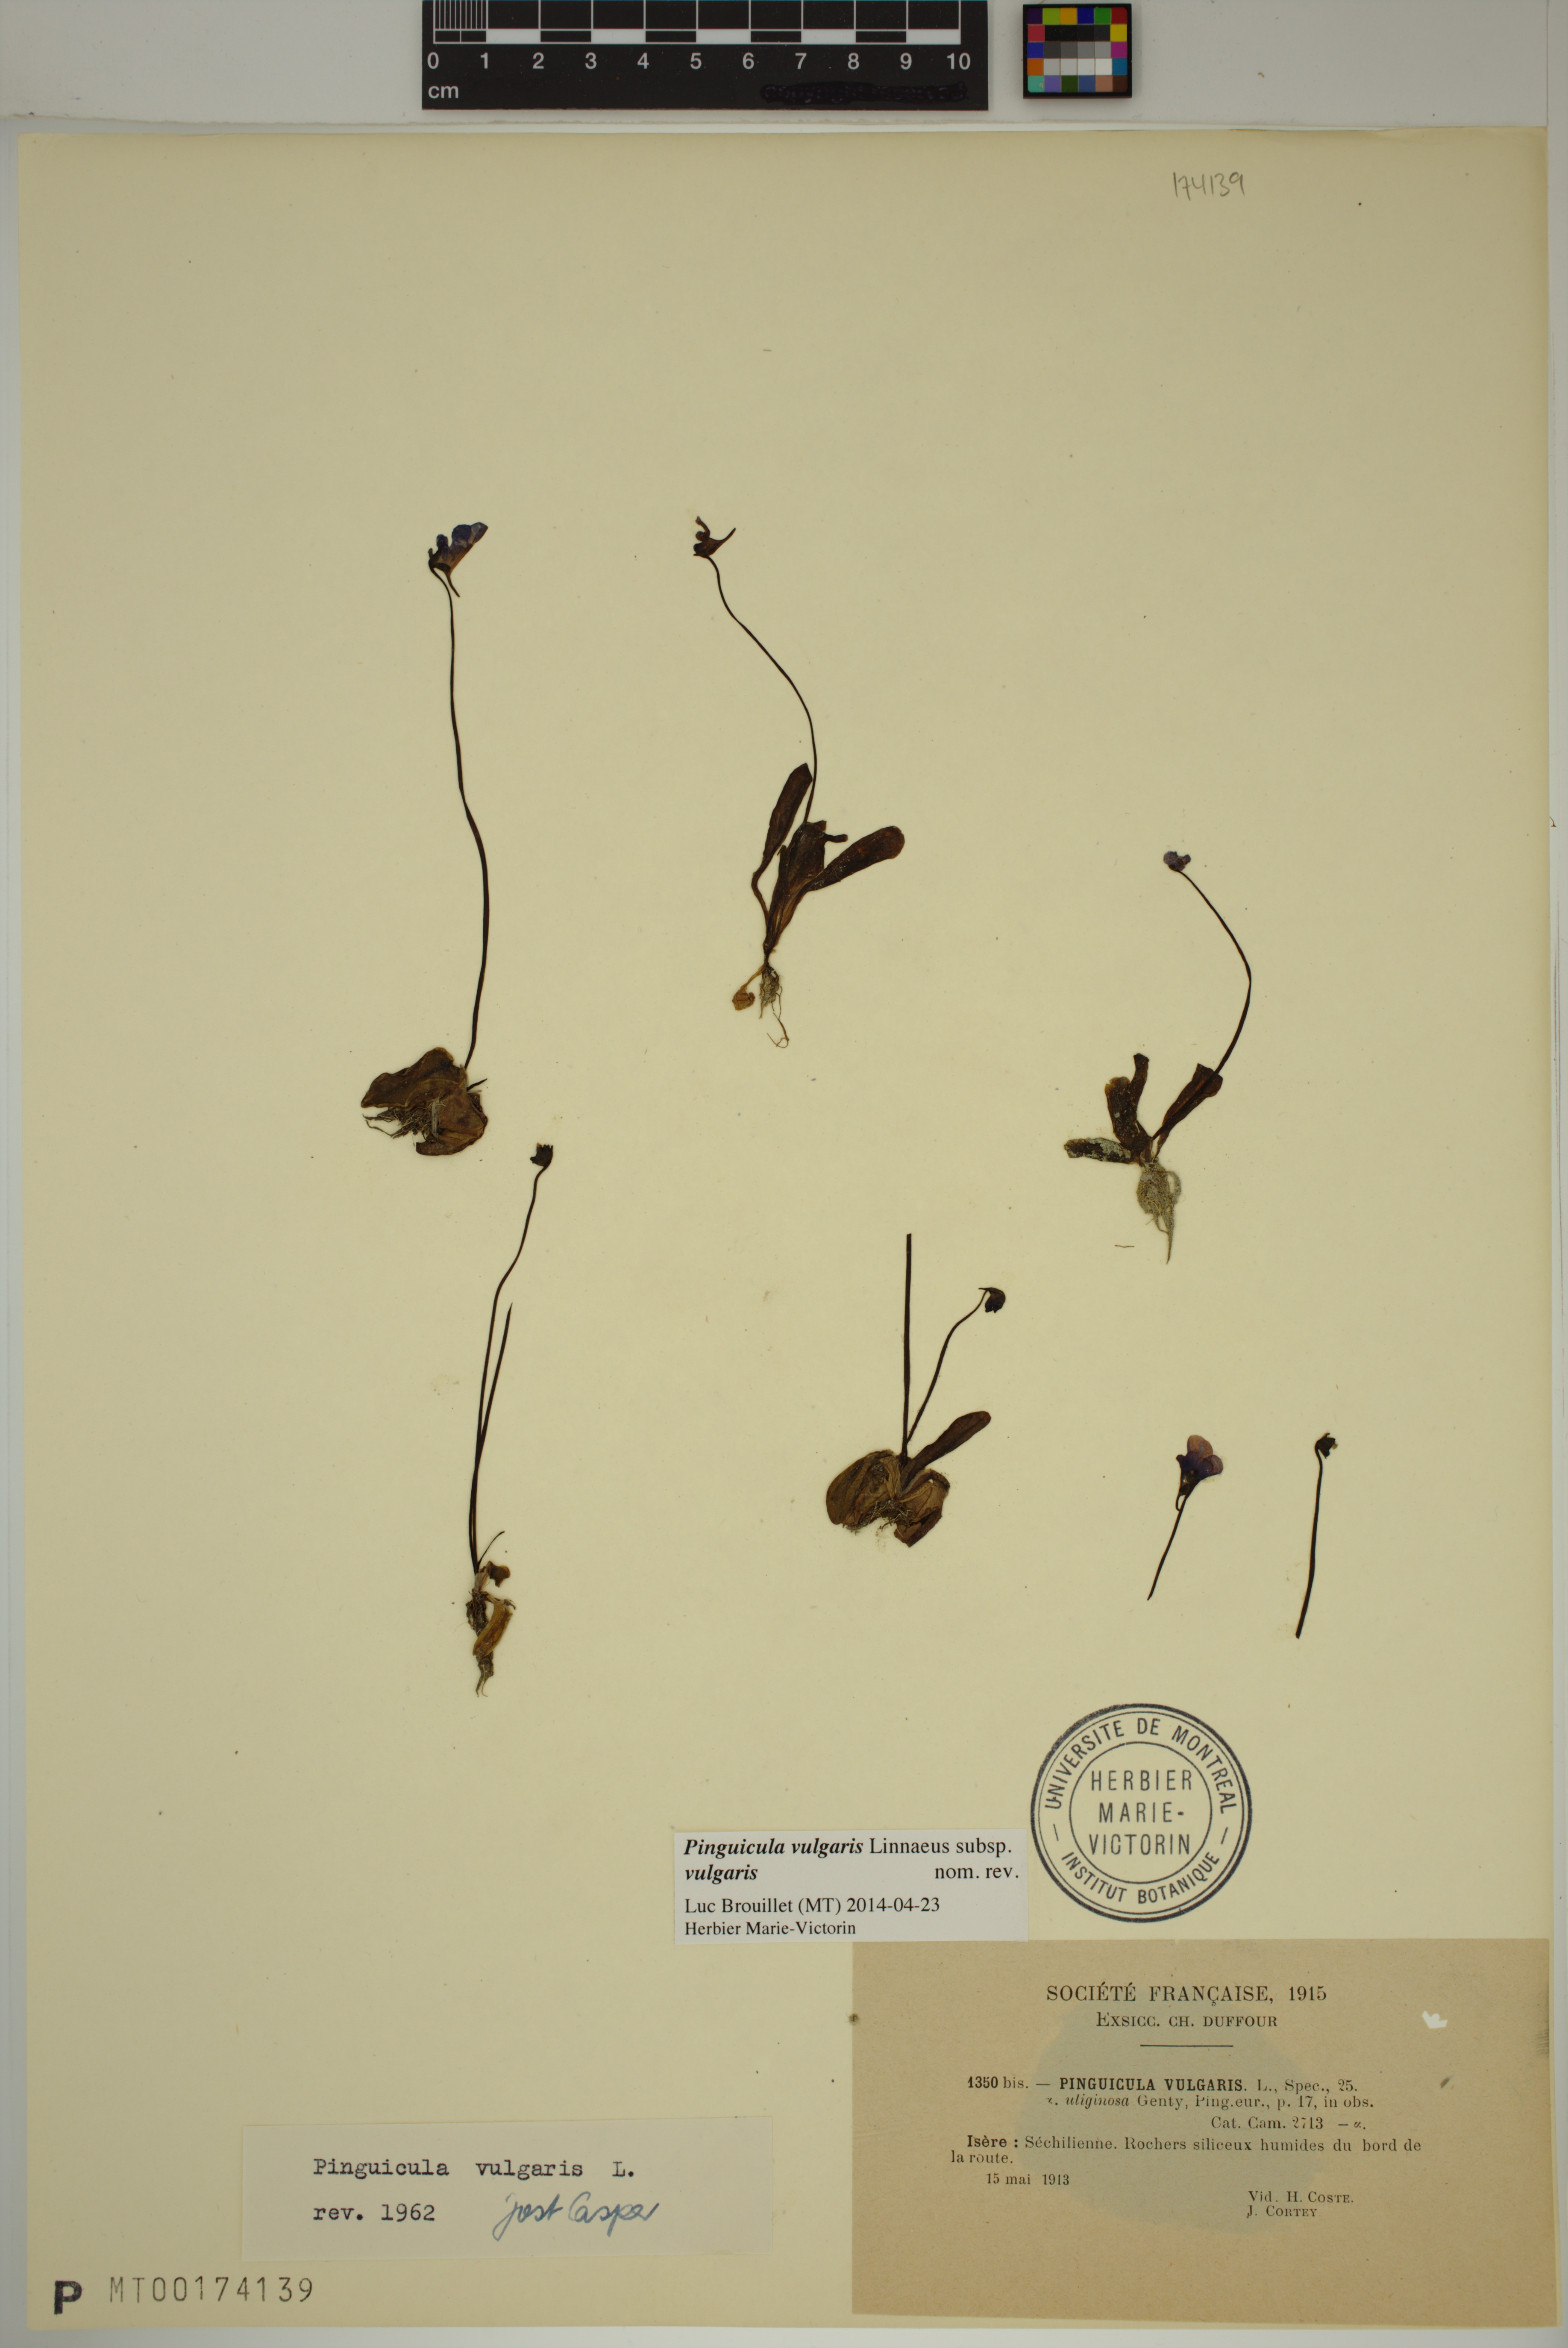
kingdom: Plantae
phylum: Tracheophyta
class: Magnoliopsida
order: Lamiales
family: Lentibulariaceae
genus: Pinguicula
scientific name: Pinguicula vulgaris
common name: Common butterwort
